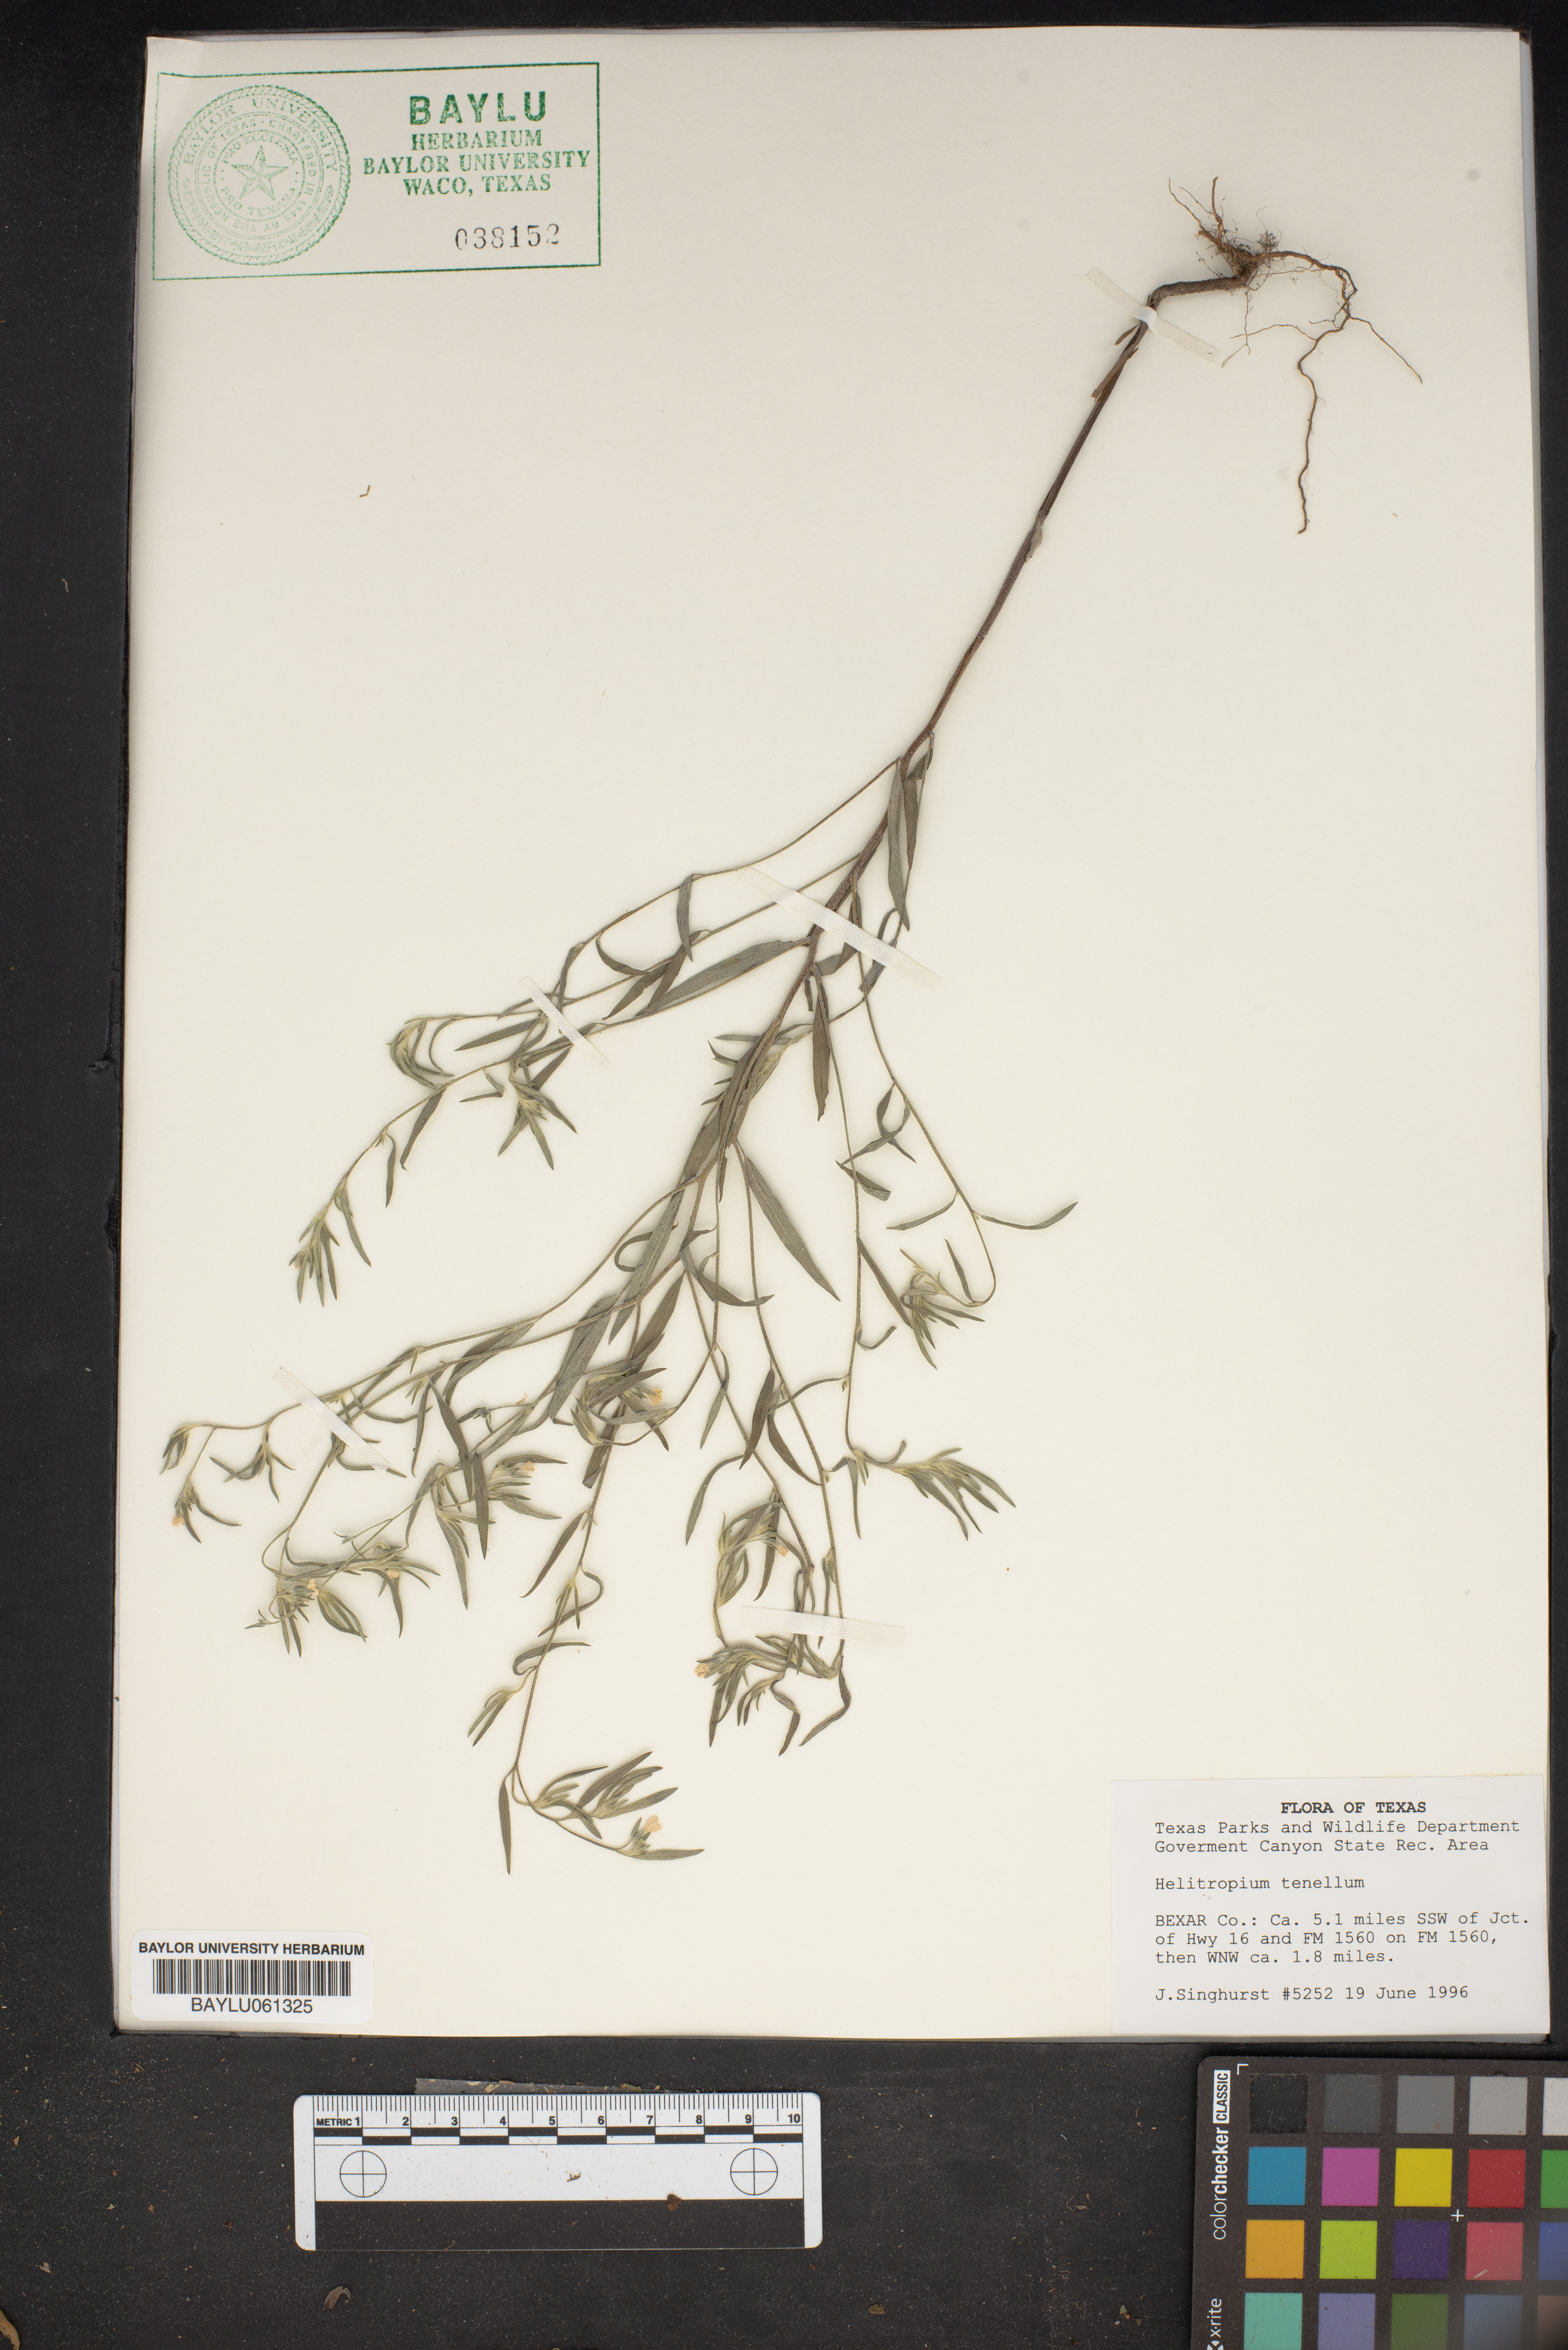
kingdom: Plantae
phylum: Tracheophyta
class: Magnoliopsida
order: Boraginales
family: Heliotropiaceae
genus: Euploca
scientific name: Euploca tenella
